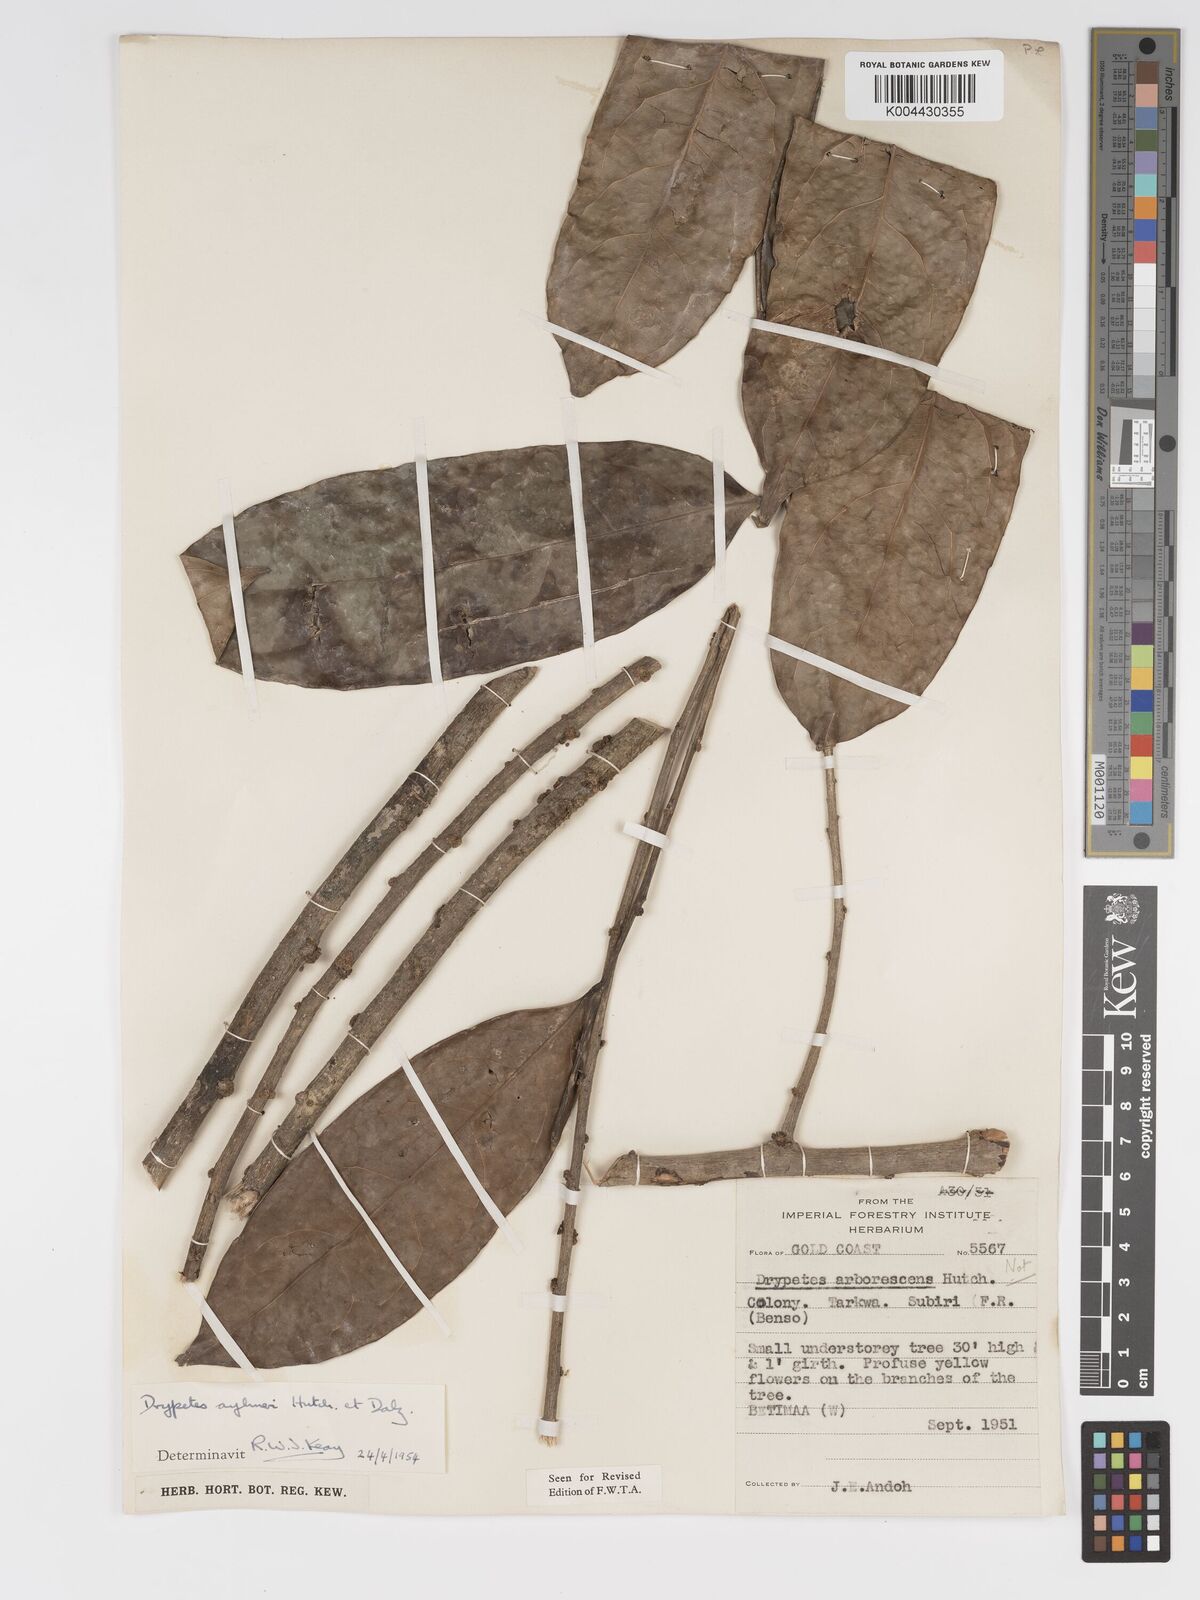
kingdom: Plantae
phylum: Tracheophyta
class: Magnoliopsida
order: Malpighiales
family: Putranjivaceae
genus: Drypetes
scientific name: Drypetes aylmeri
